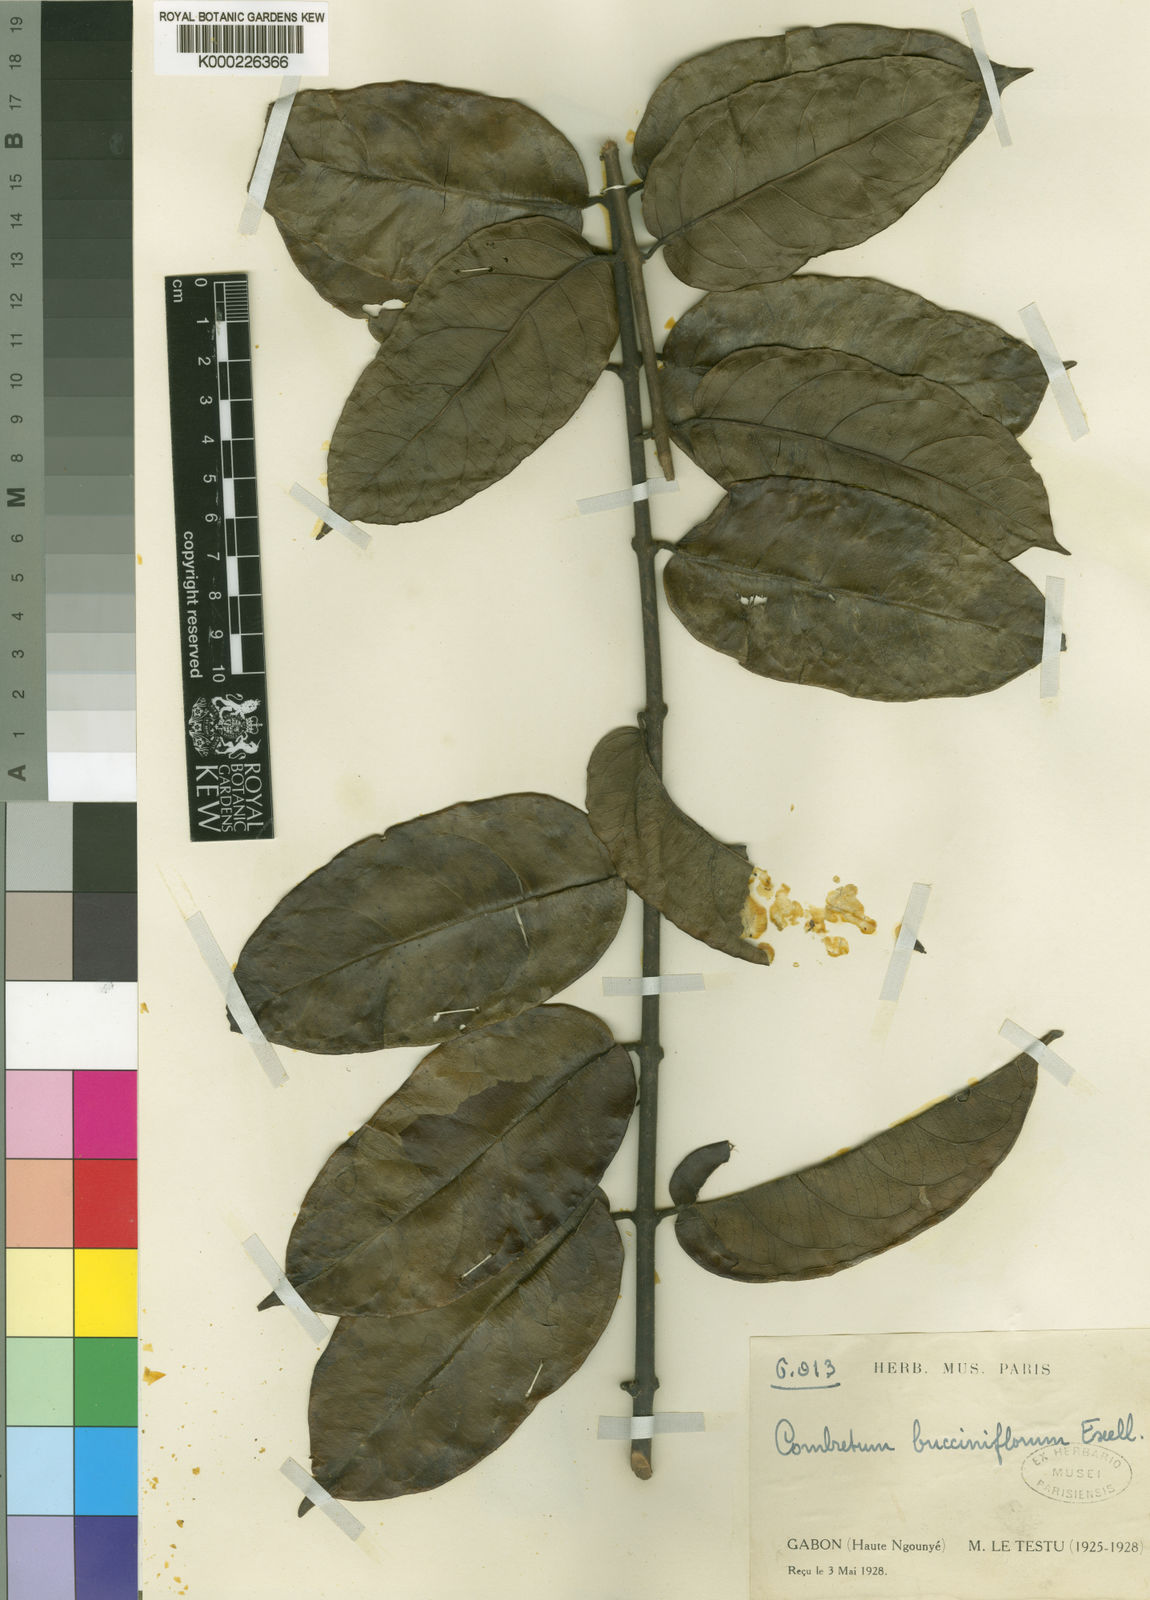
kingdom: Plantae
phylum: Tracheophyta
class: Magnoliopsida
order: Myrtales
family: Combretaceae
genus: Combretum
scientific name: Combretum bracteatum
